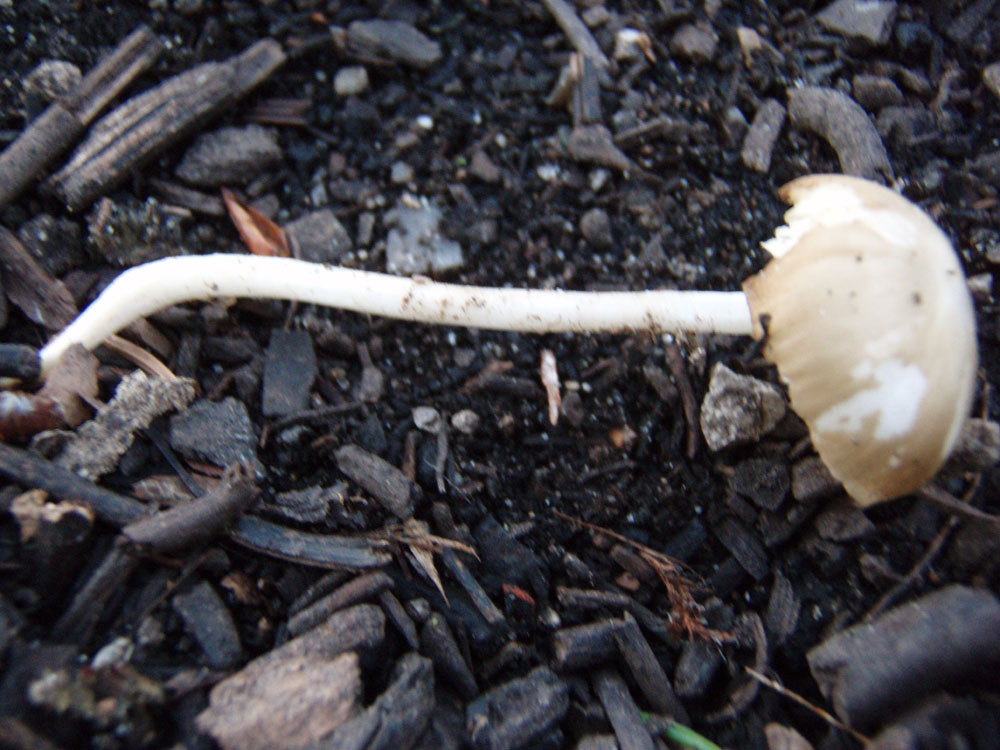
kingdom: Fungi
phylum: Basidiomycota
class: Agaricomycetes
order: Agaricales
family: Porotheleaceae
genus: Hydropodia
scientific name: Hydropodia subalpina
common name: vår-fnugfod
